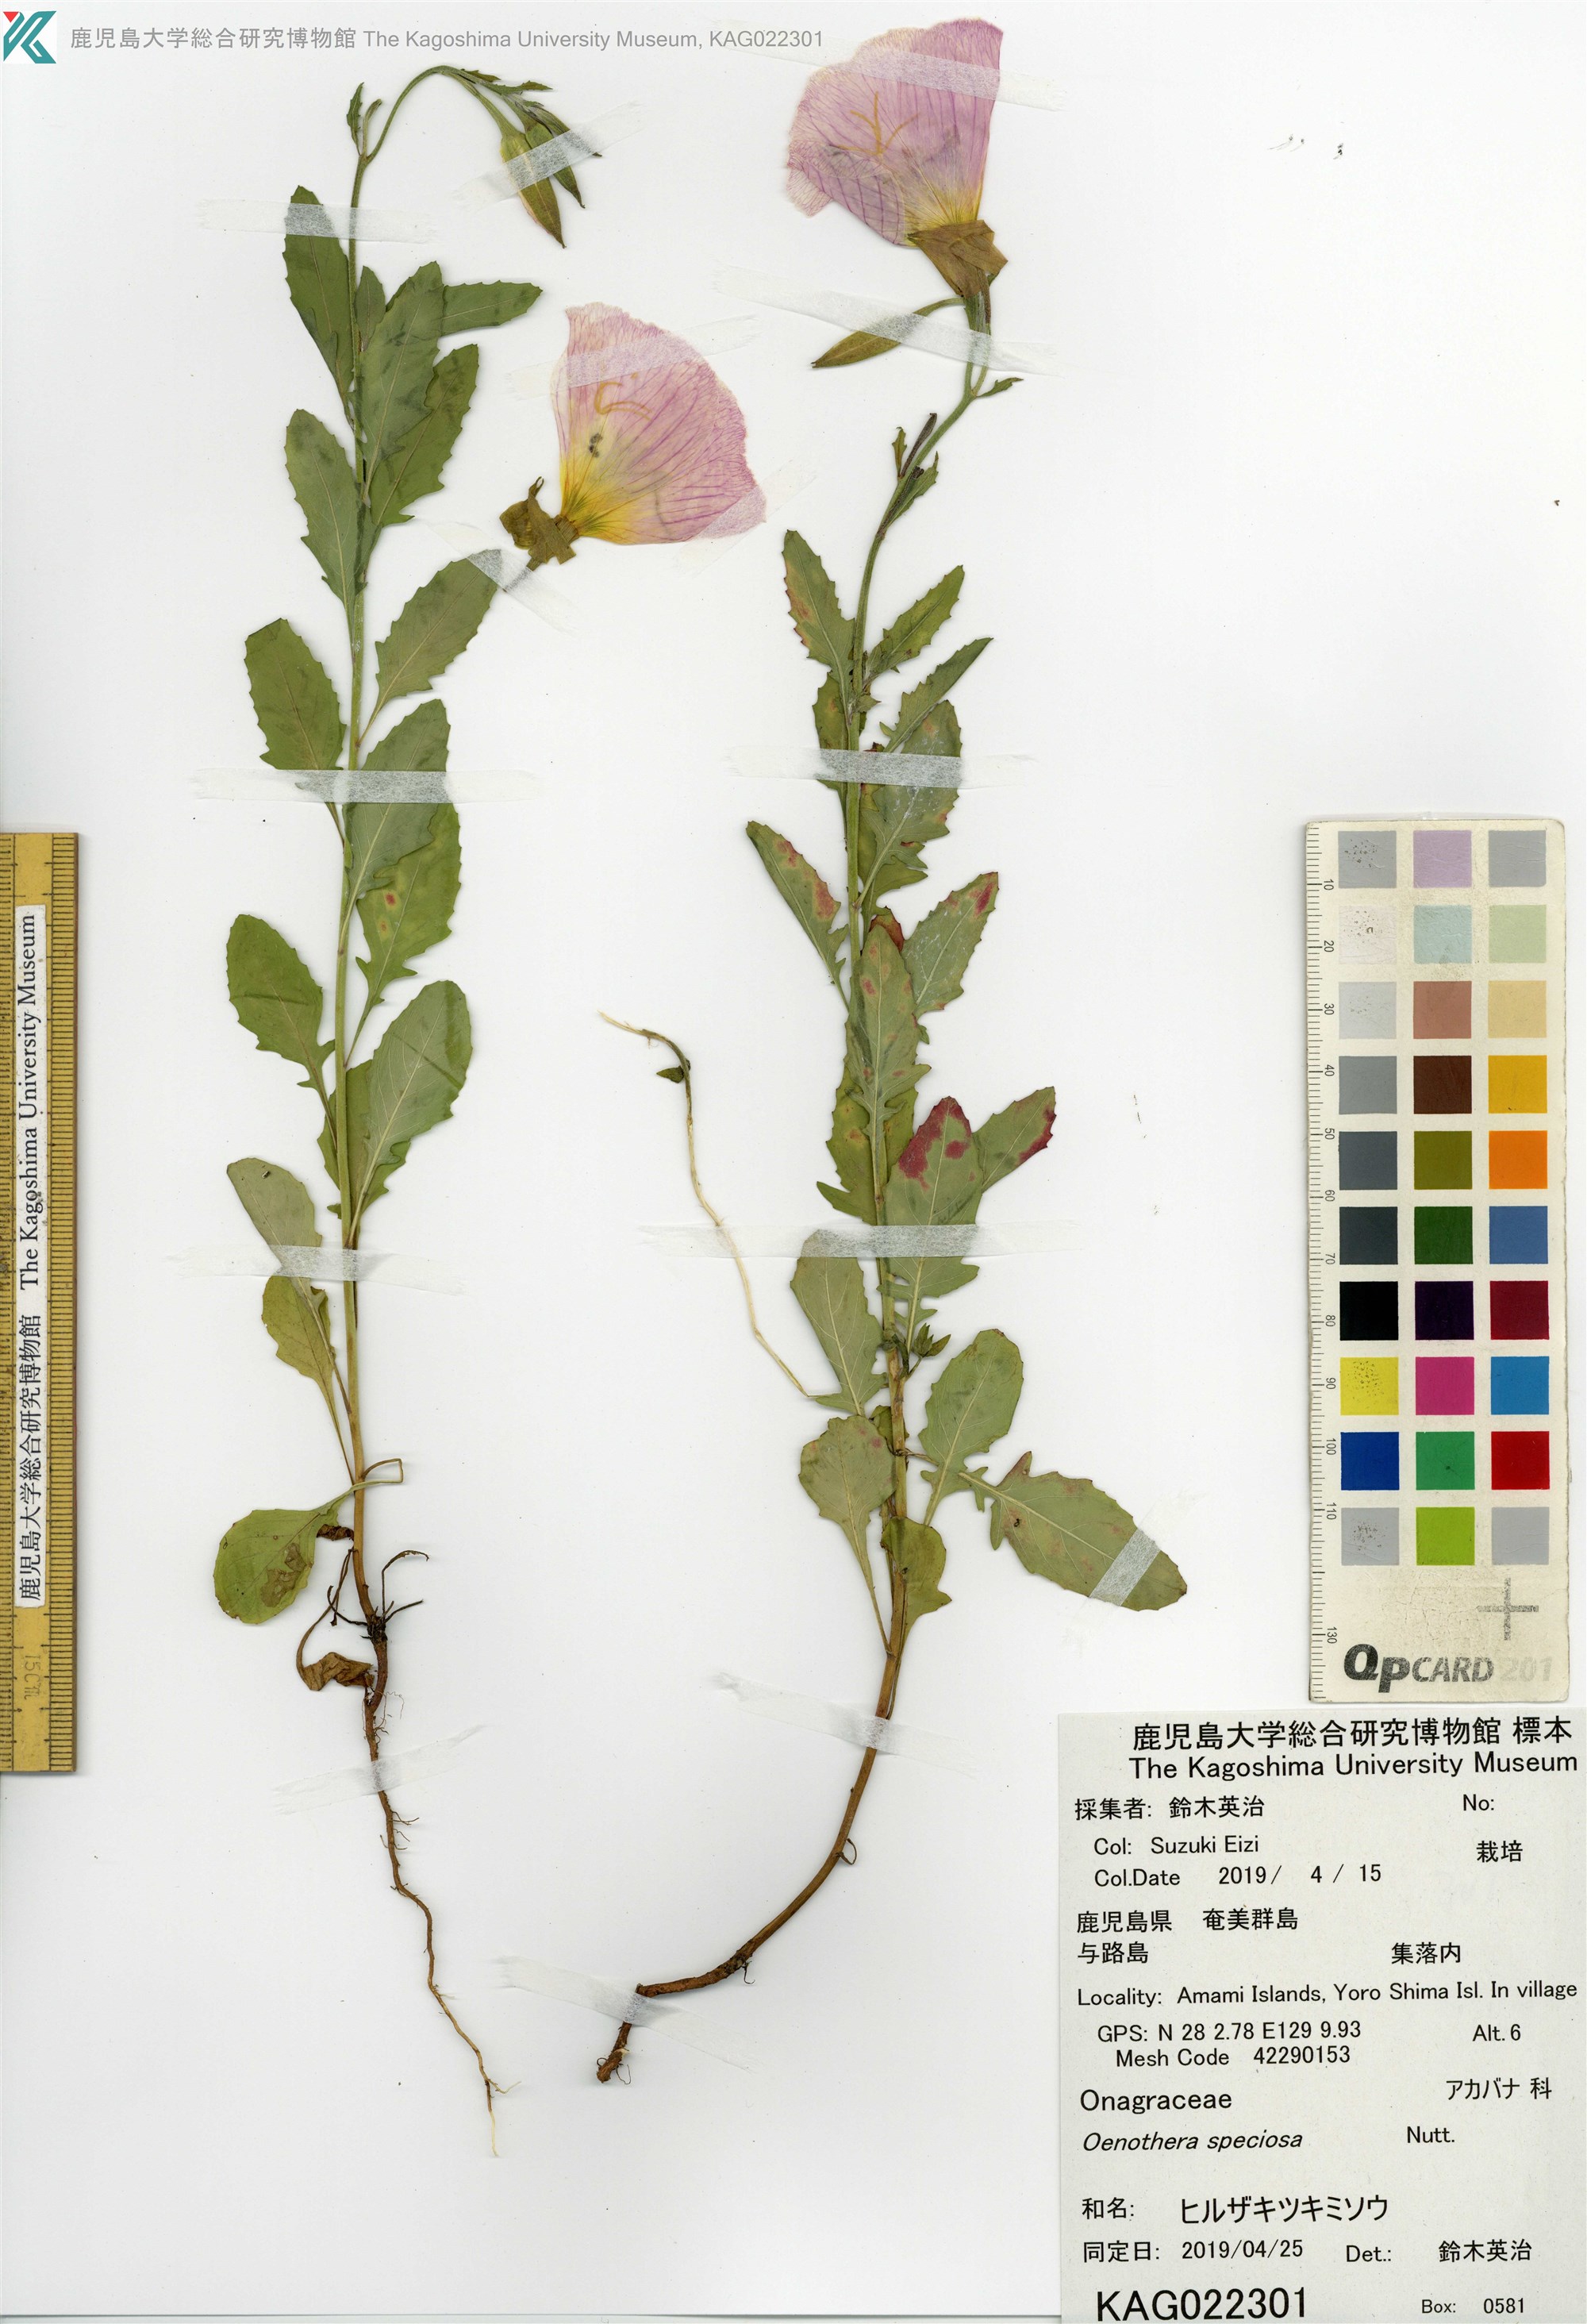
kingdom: Plantae
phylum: Tracheophyta
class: Magnoliopsida
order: Myrtales
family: Onagraceae
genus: Oenothera
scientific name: Oenothera speciosa
